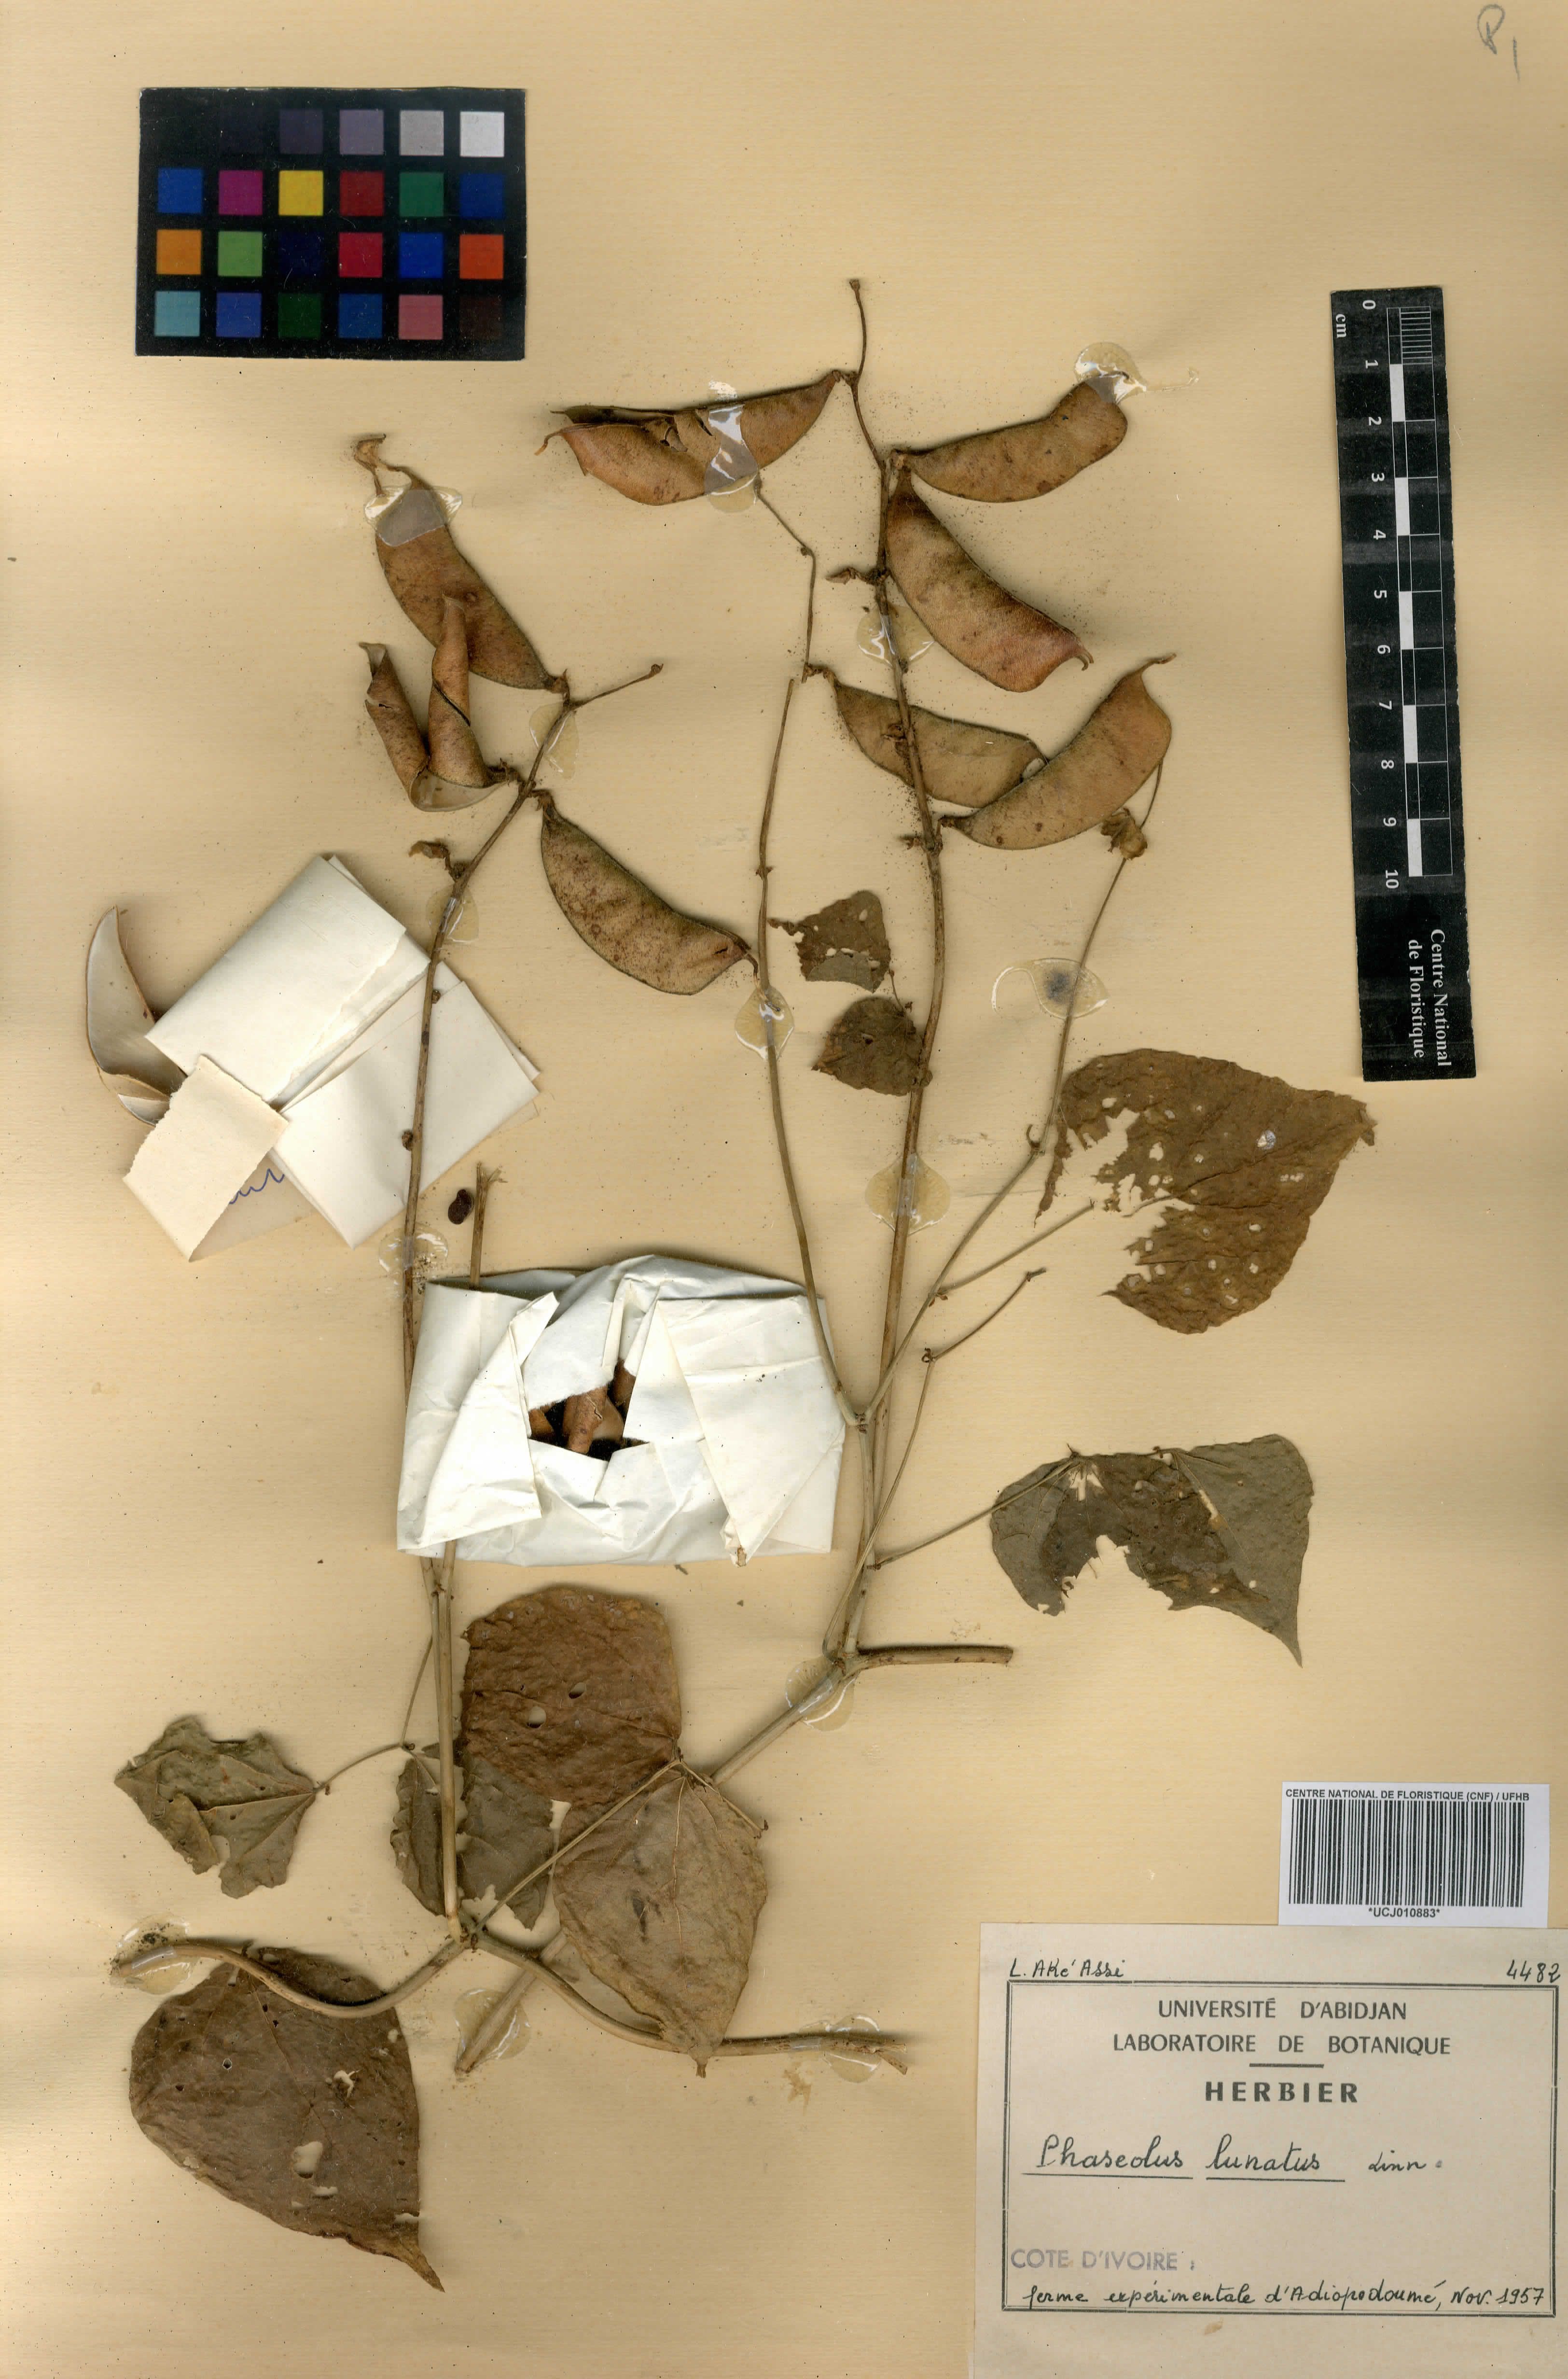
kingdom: Plantae
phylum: Tracheophyta
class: Magnoliopsida
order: Fabales
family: Fabaceae
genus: Phaseolus
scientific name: Phaseolus lunatus
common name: Sieva bean
